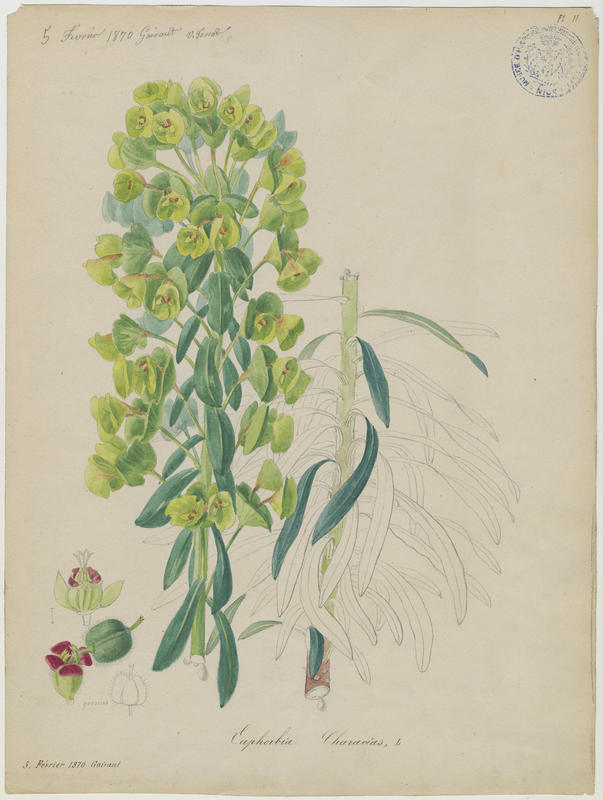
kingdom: Plantae
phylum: Tracheophyta
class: Magnoliopsida
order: Malpighiales
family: Euphorbiaceae
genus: Euphorbia
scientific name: Euphorbia characias
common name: Mediterranean spurge
